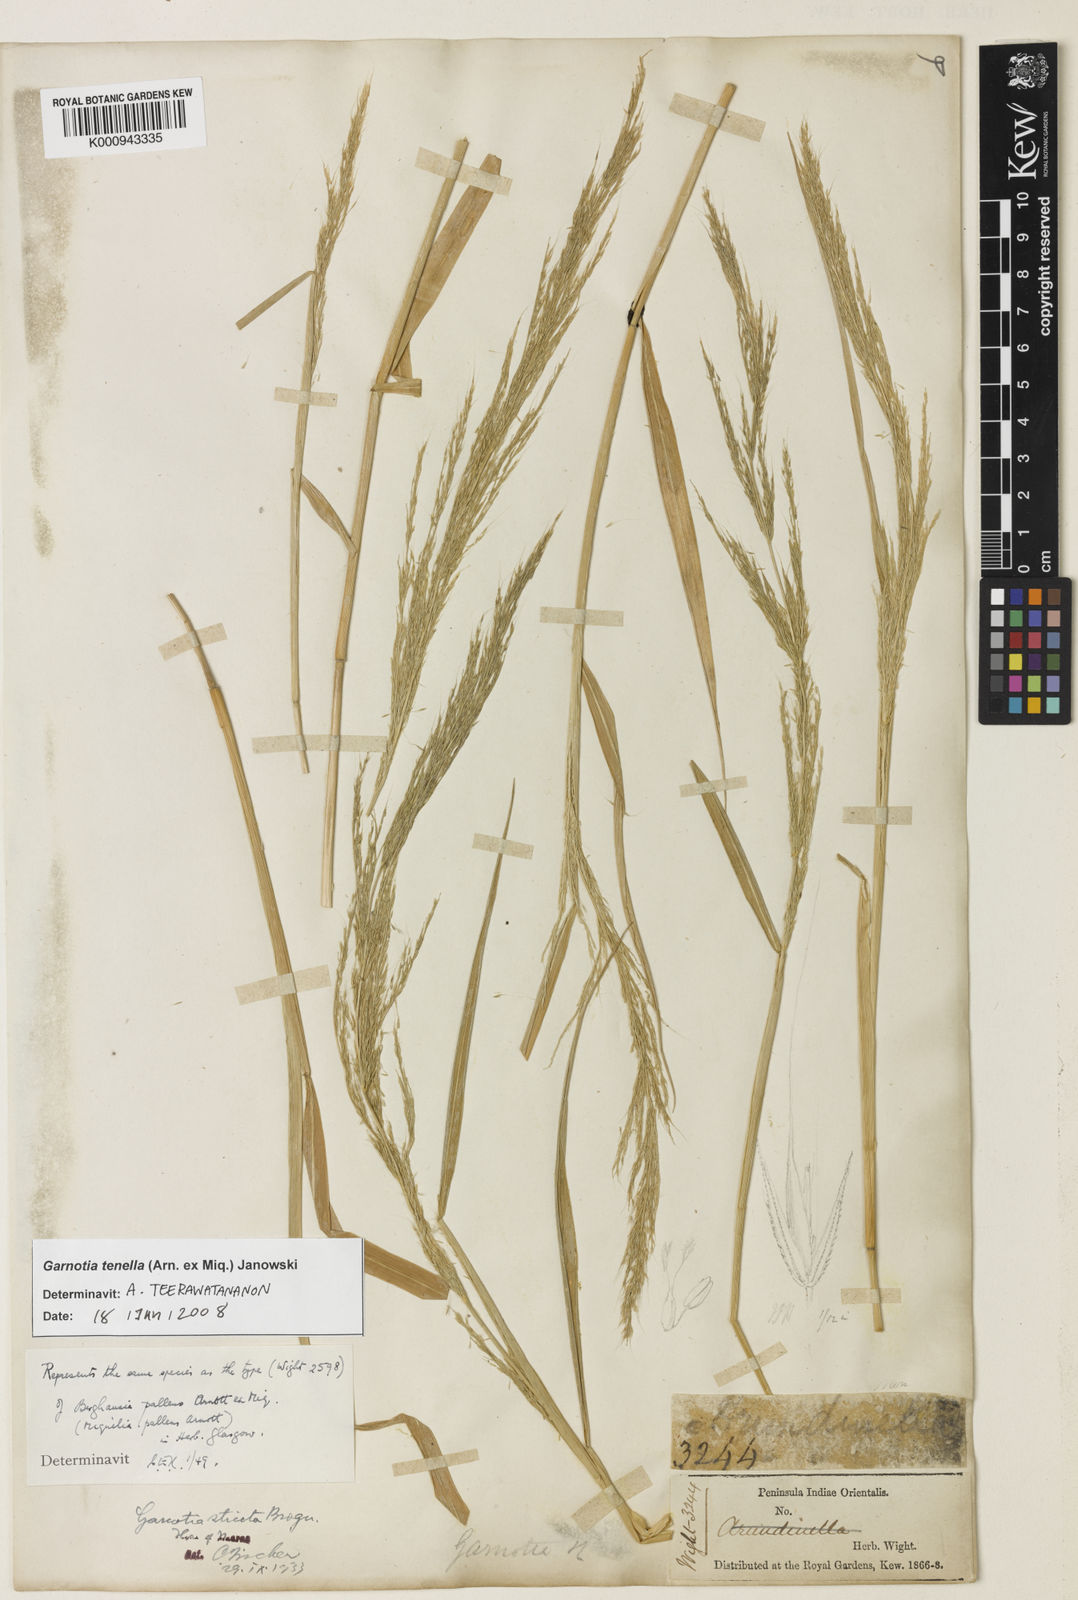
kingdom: Plantae
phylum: Tracheophyta
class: Liliopsida
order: Poales
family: Poaceae
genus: Garnotia
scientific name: Garnotia stricta
